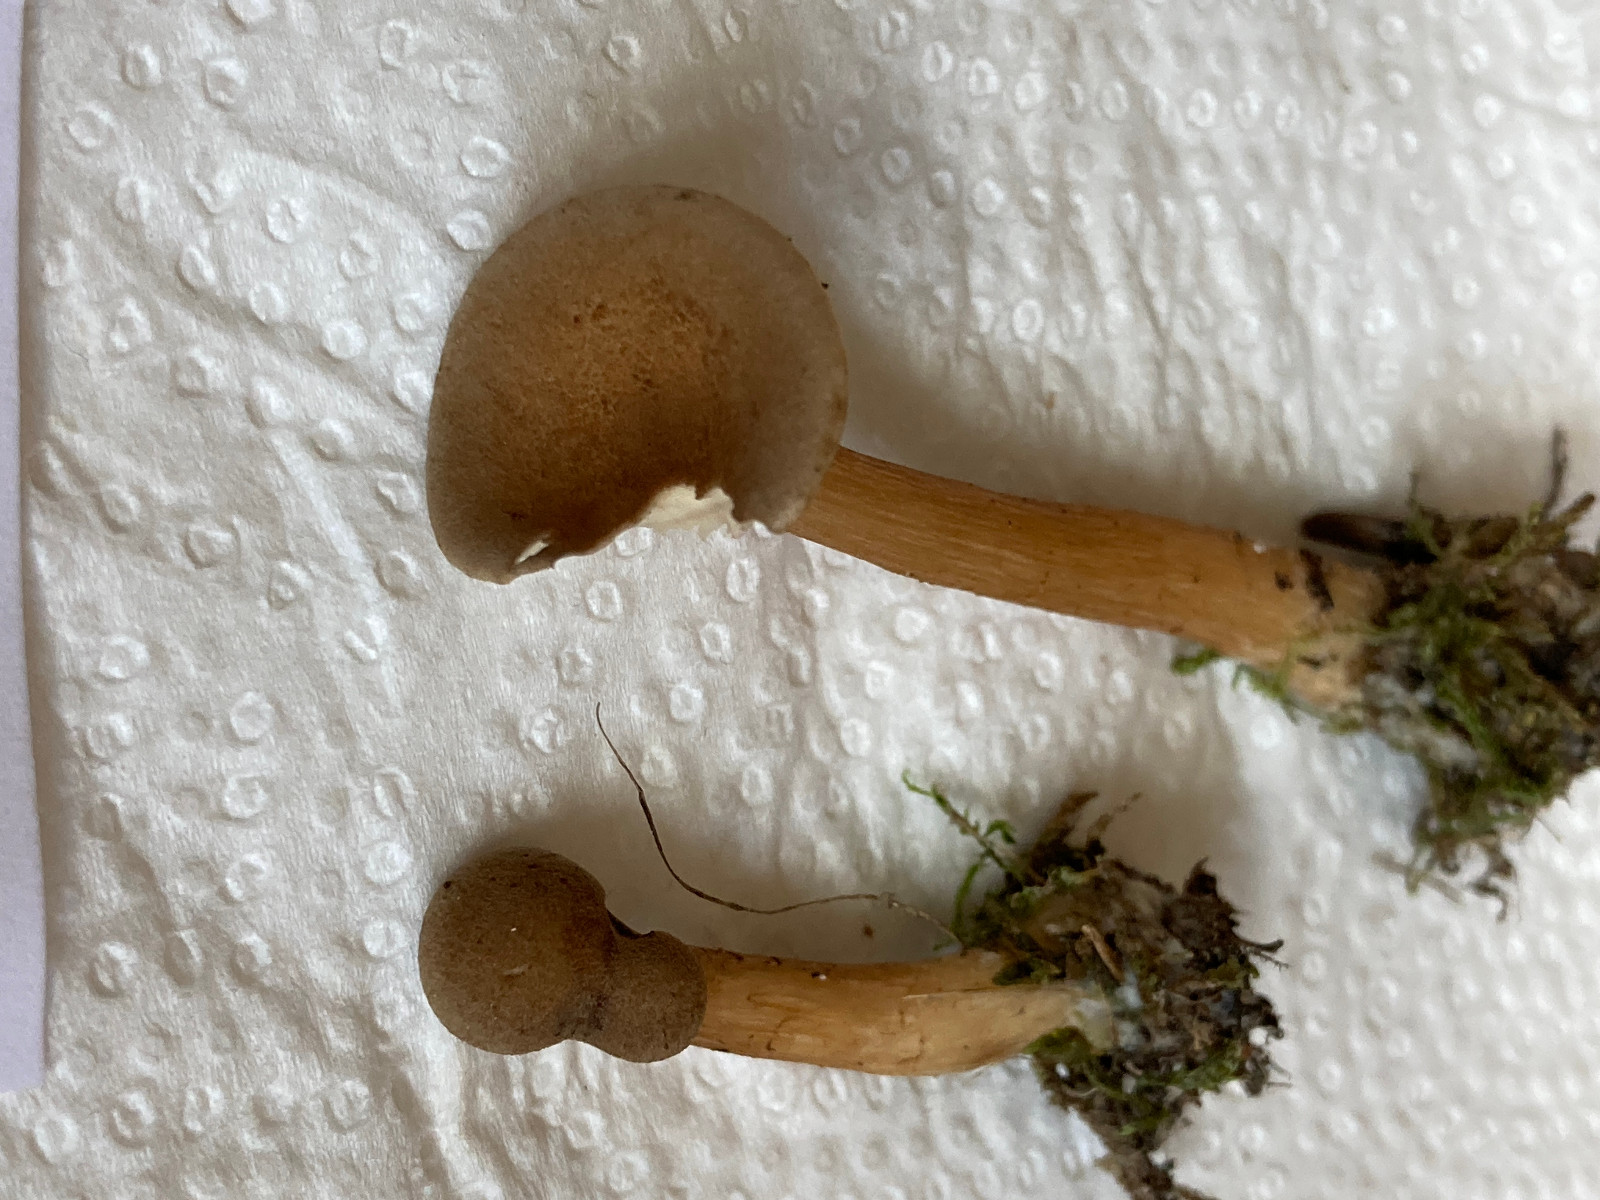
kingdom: Fungi
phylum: Basidiomycota
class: Agaricomycetes
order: Agaricales
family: Tricholomataceae
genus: Clitocybe
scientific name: Clitocybe costata
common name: brunstokket tragthat
